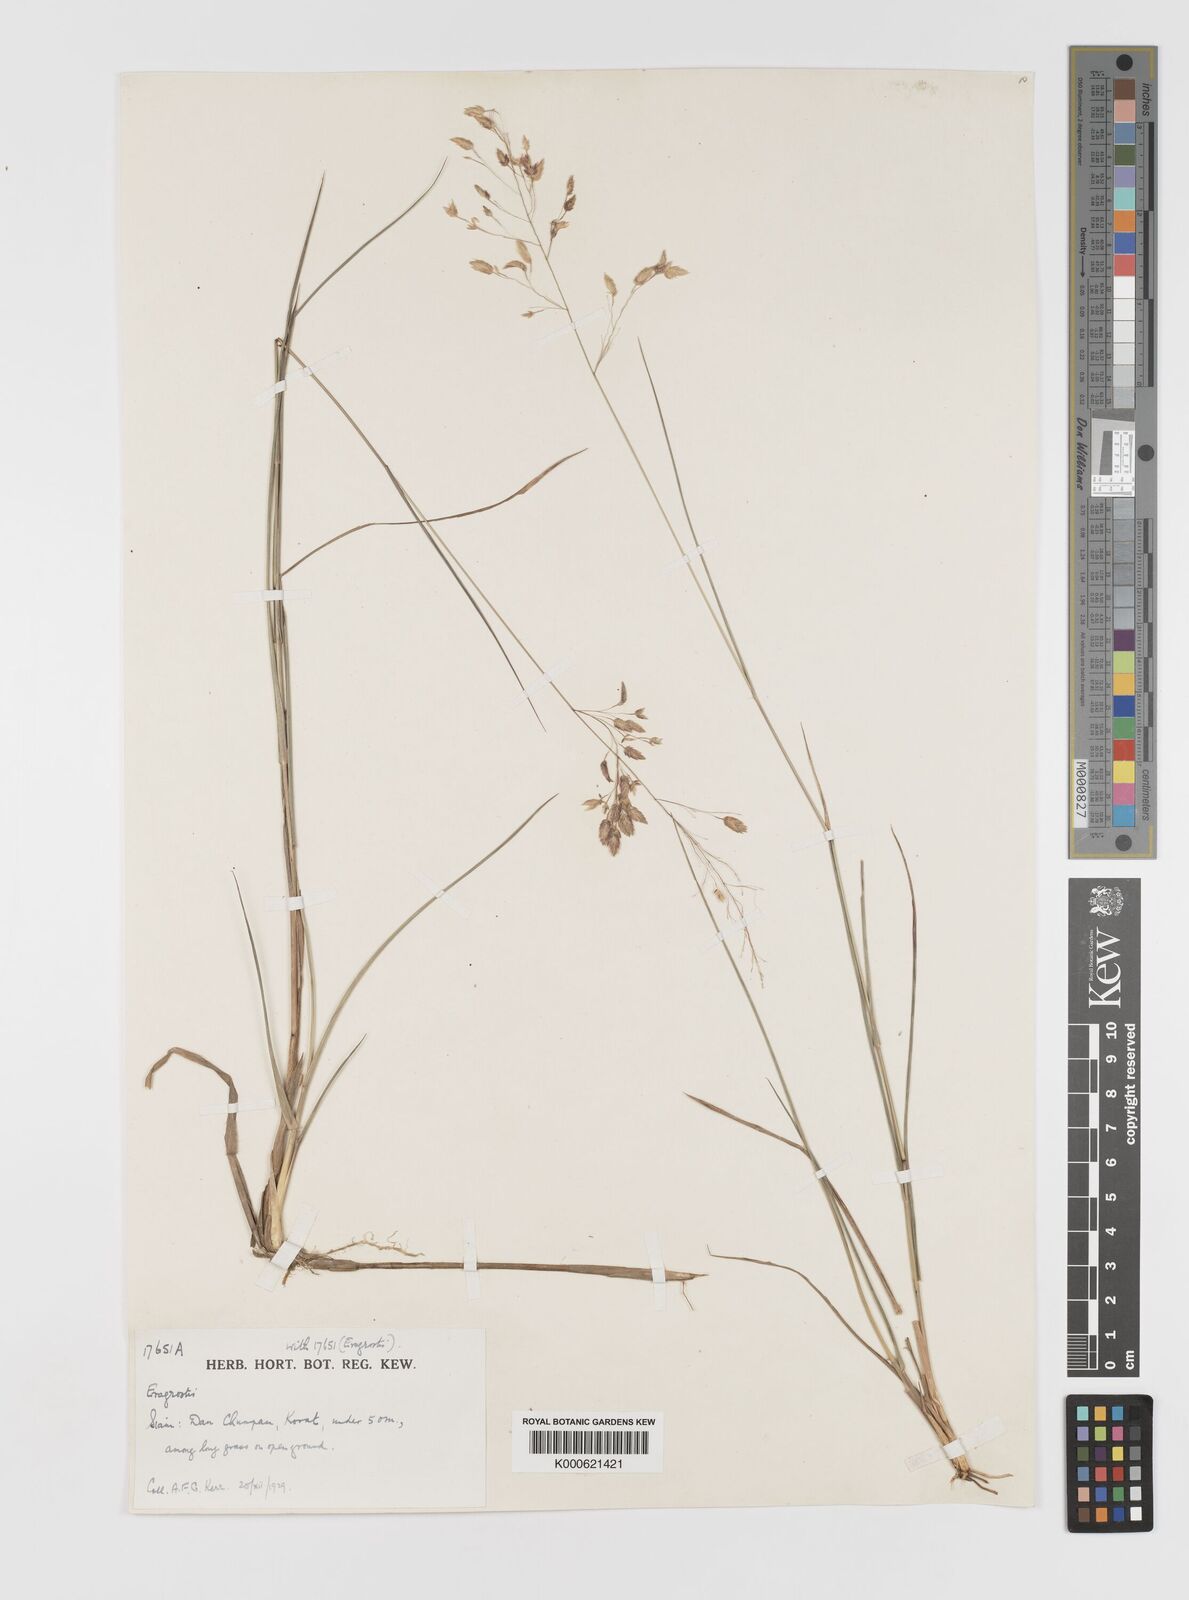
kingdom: Plantae
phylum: Tracheophyta
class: Liliopsida
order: Poales
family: Poaceae
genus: Eragrostis
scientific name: Eragrostis capensis
